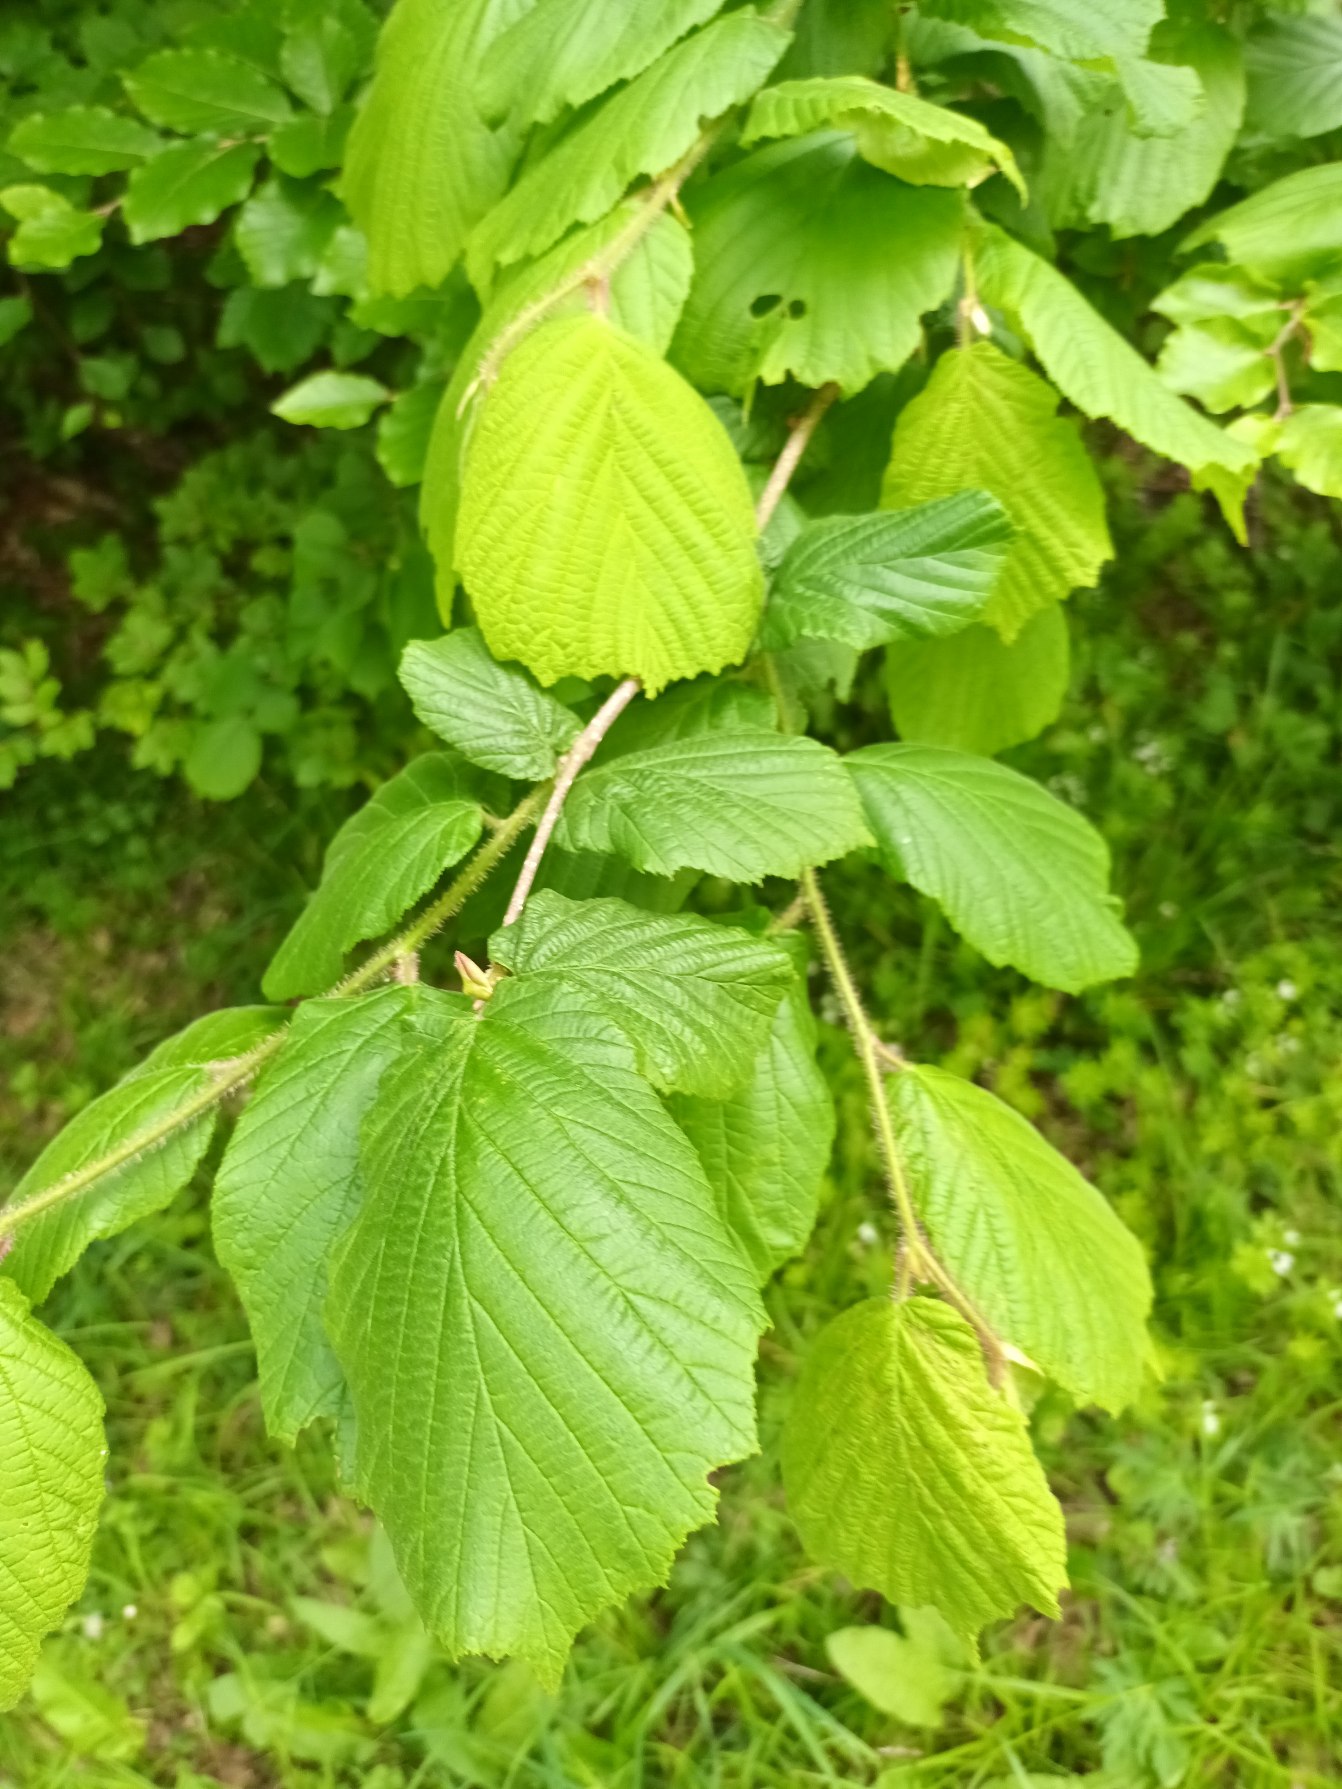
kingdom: Plantae
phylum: Tracheophyta
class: Magnoliopsida
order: Fagales
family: Betulaceae
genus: Corylus
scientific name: Corylus avellana
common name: Hassel
